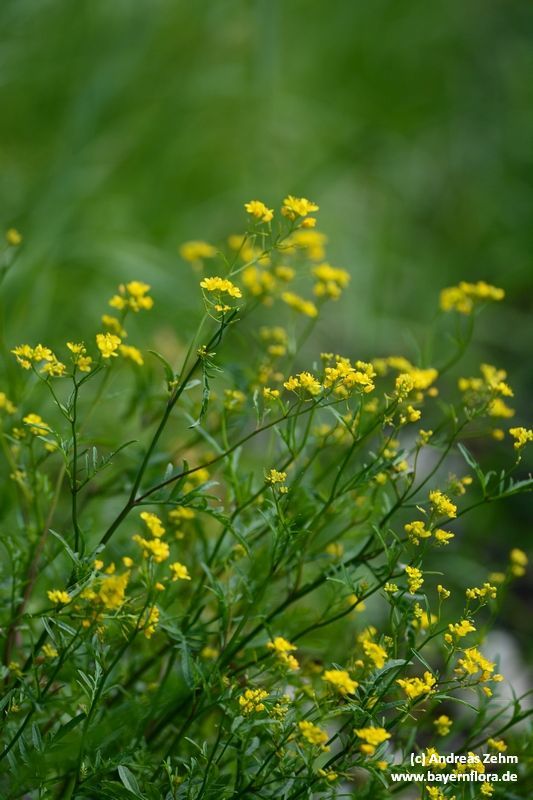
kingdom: Plantae
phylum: Tracheophyta
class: Magnoliopsida
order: Brassicales
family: Brassicaceae
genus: Rorippa
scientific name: Rorippa sylvestris
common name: Creeping yellowcress
